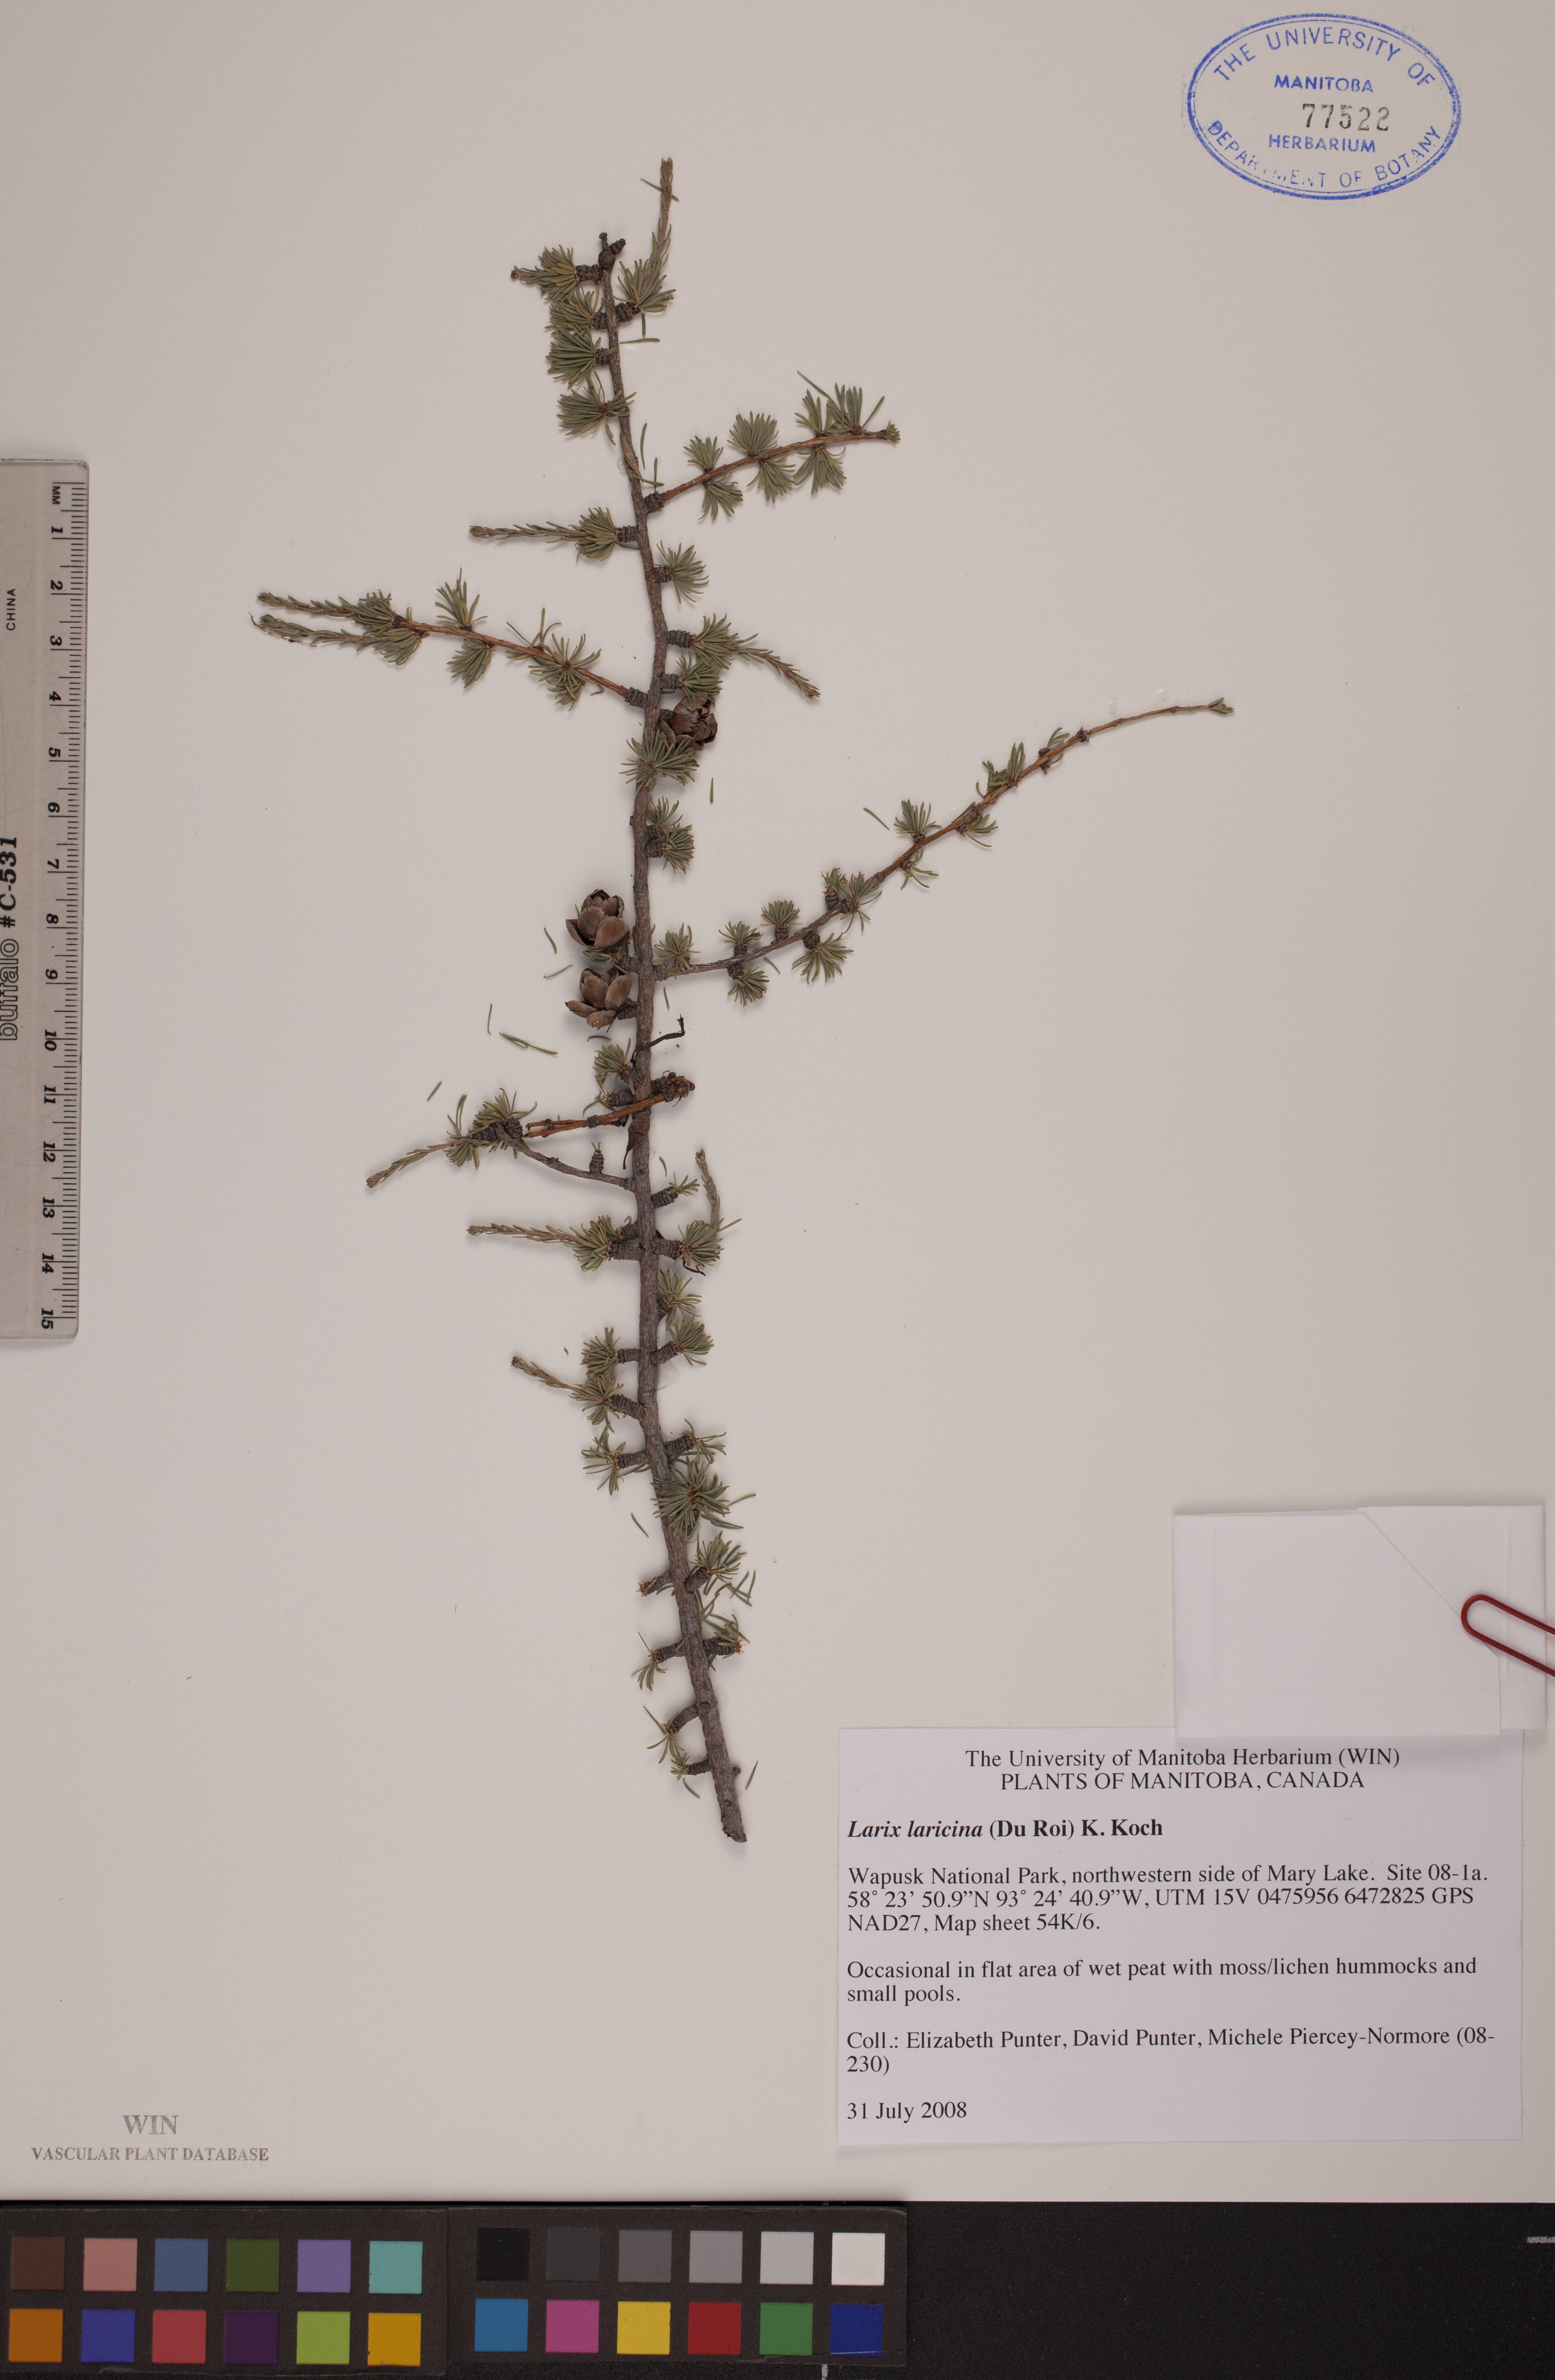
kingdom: Plantae
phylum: Tracheophyta
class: Pinopsida
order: Pinales
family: Pinaceae
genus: Larix
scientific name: Larix laricina
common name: American larch
